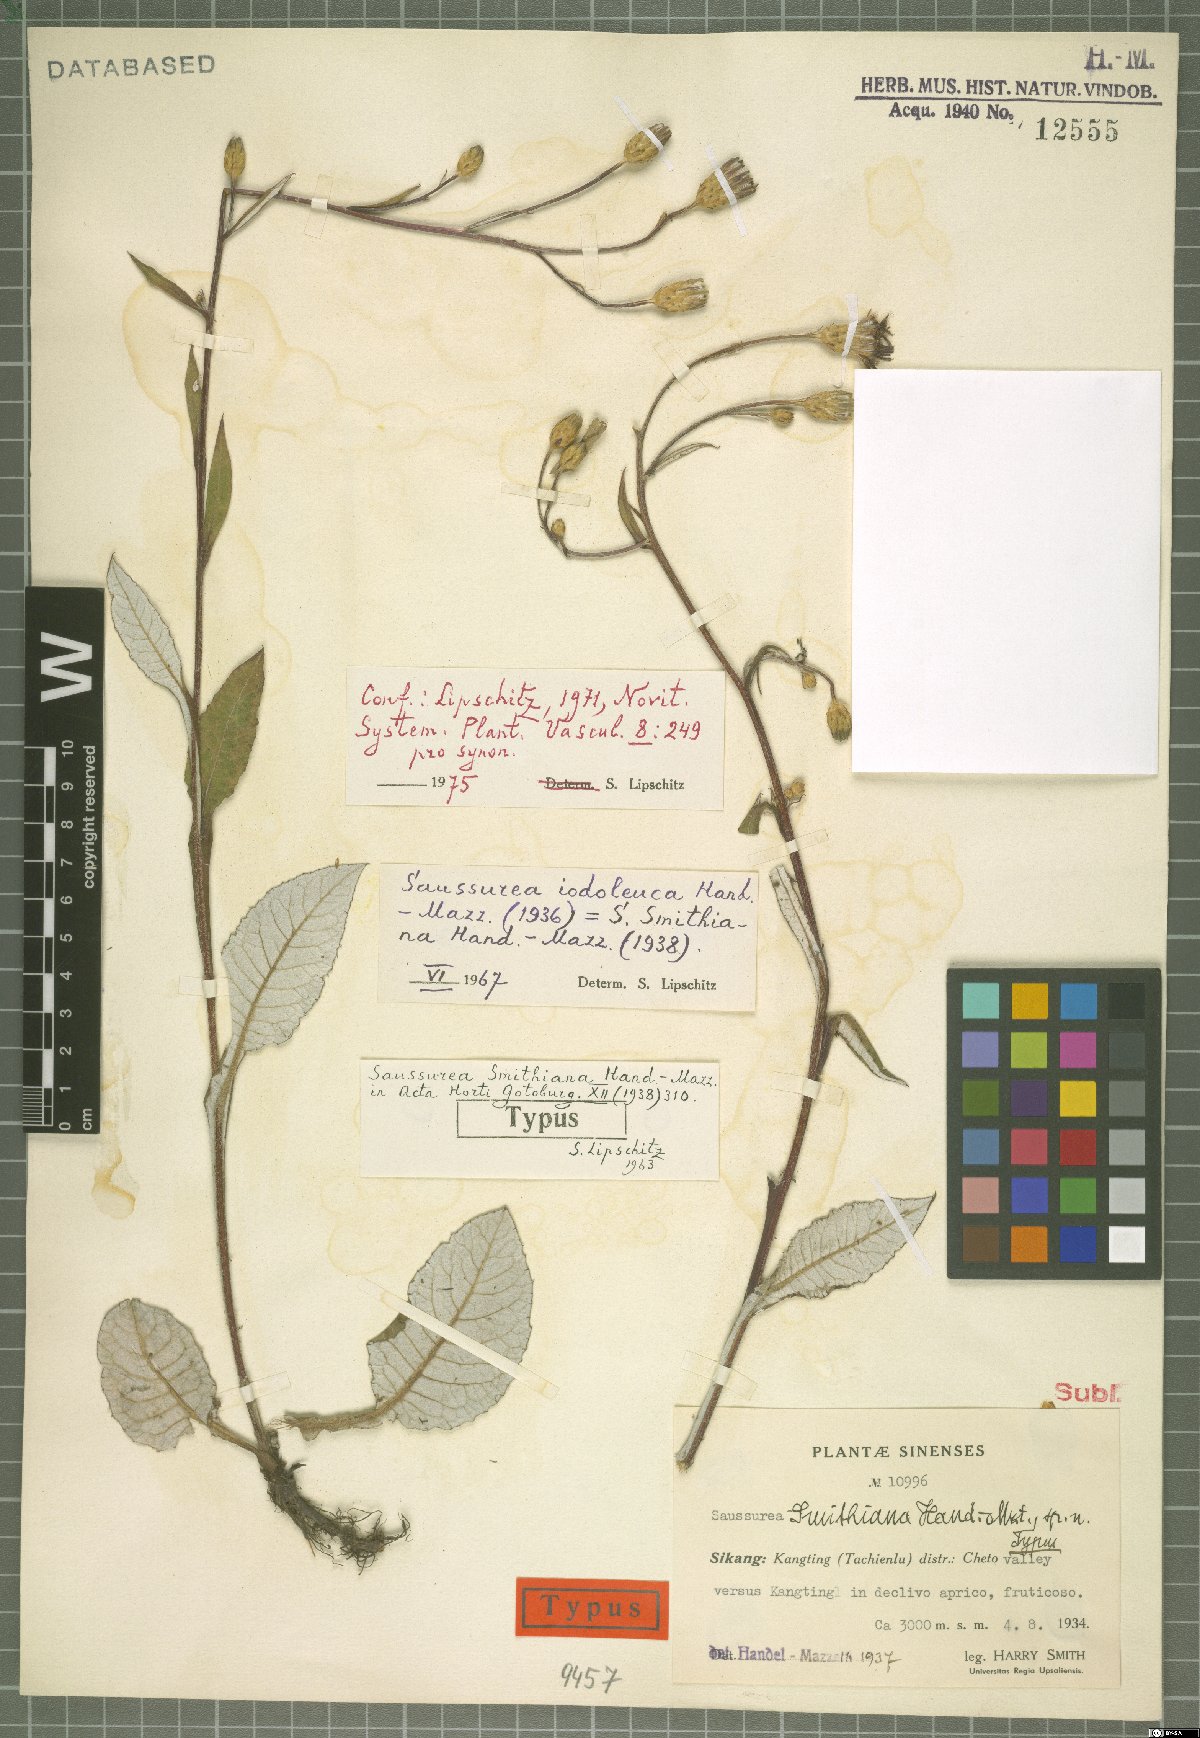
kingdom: Plantae
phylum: Tracheophyta
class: Magnoliopsida
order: Asterales
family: Asteraceae
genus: Saussurea
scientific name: Saussurea iodoleuca
